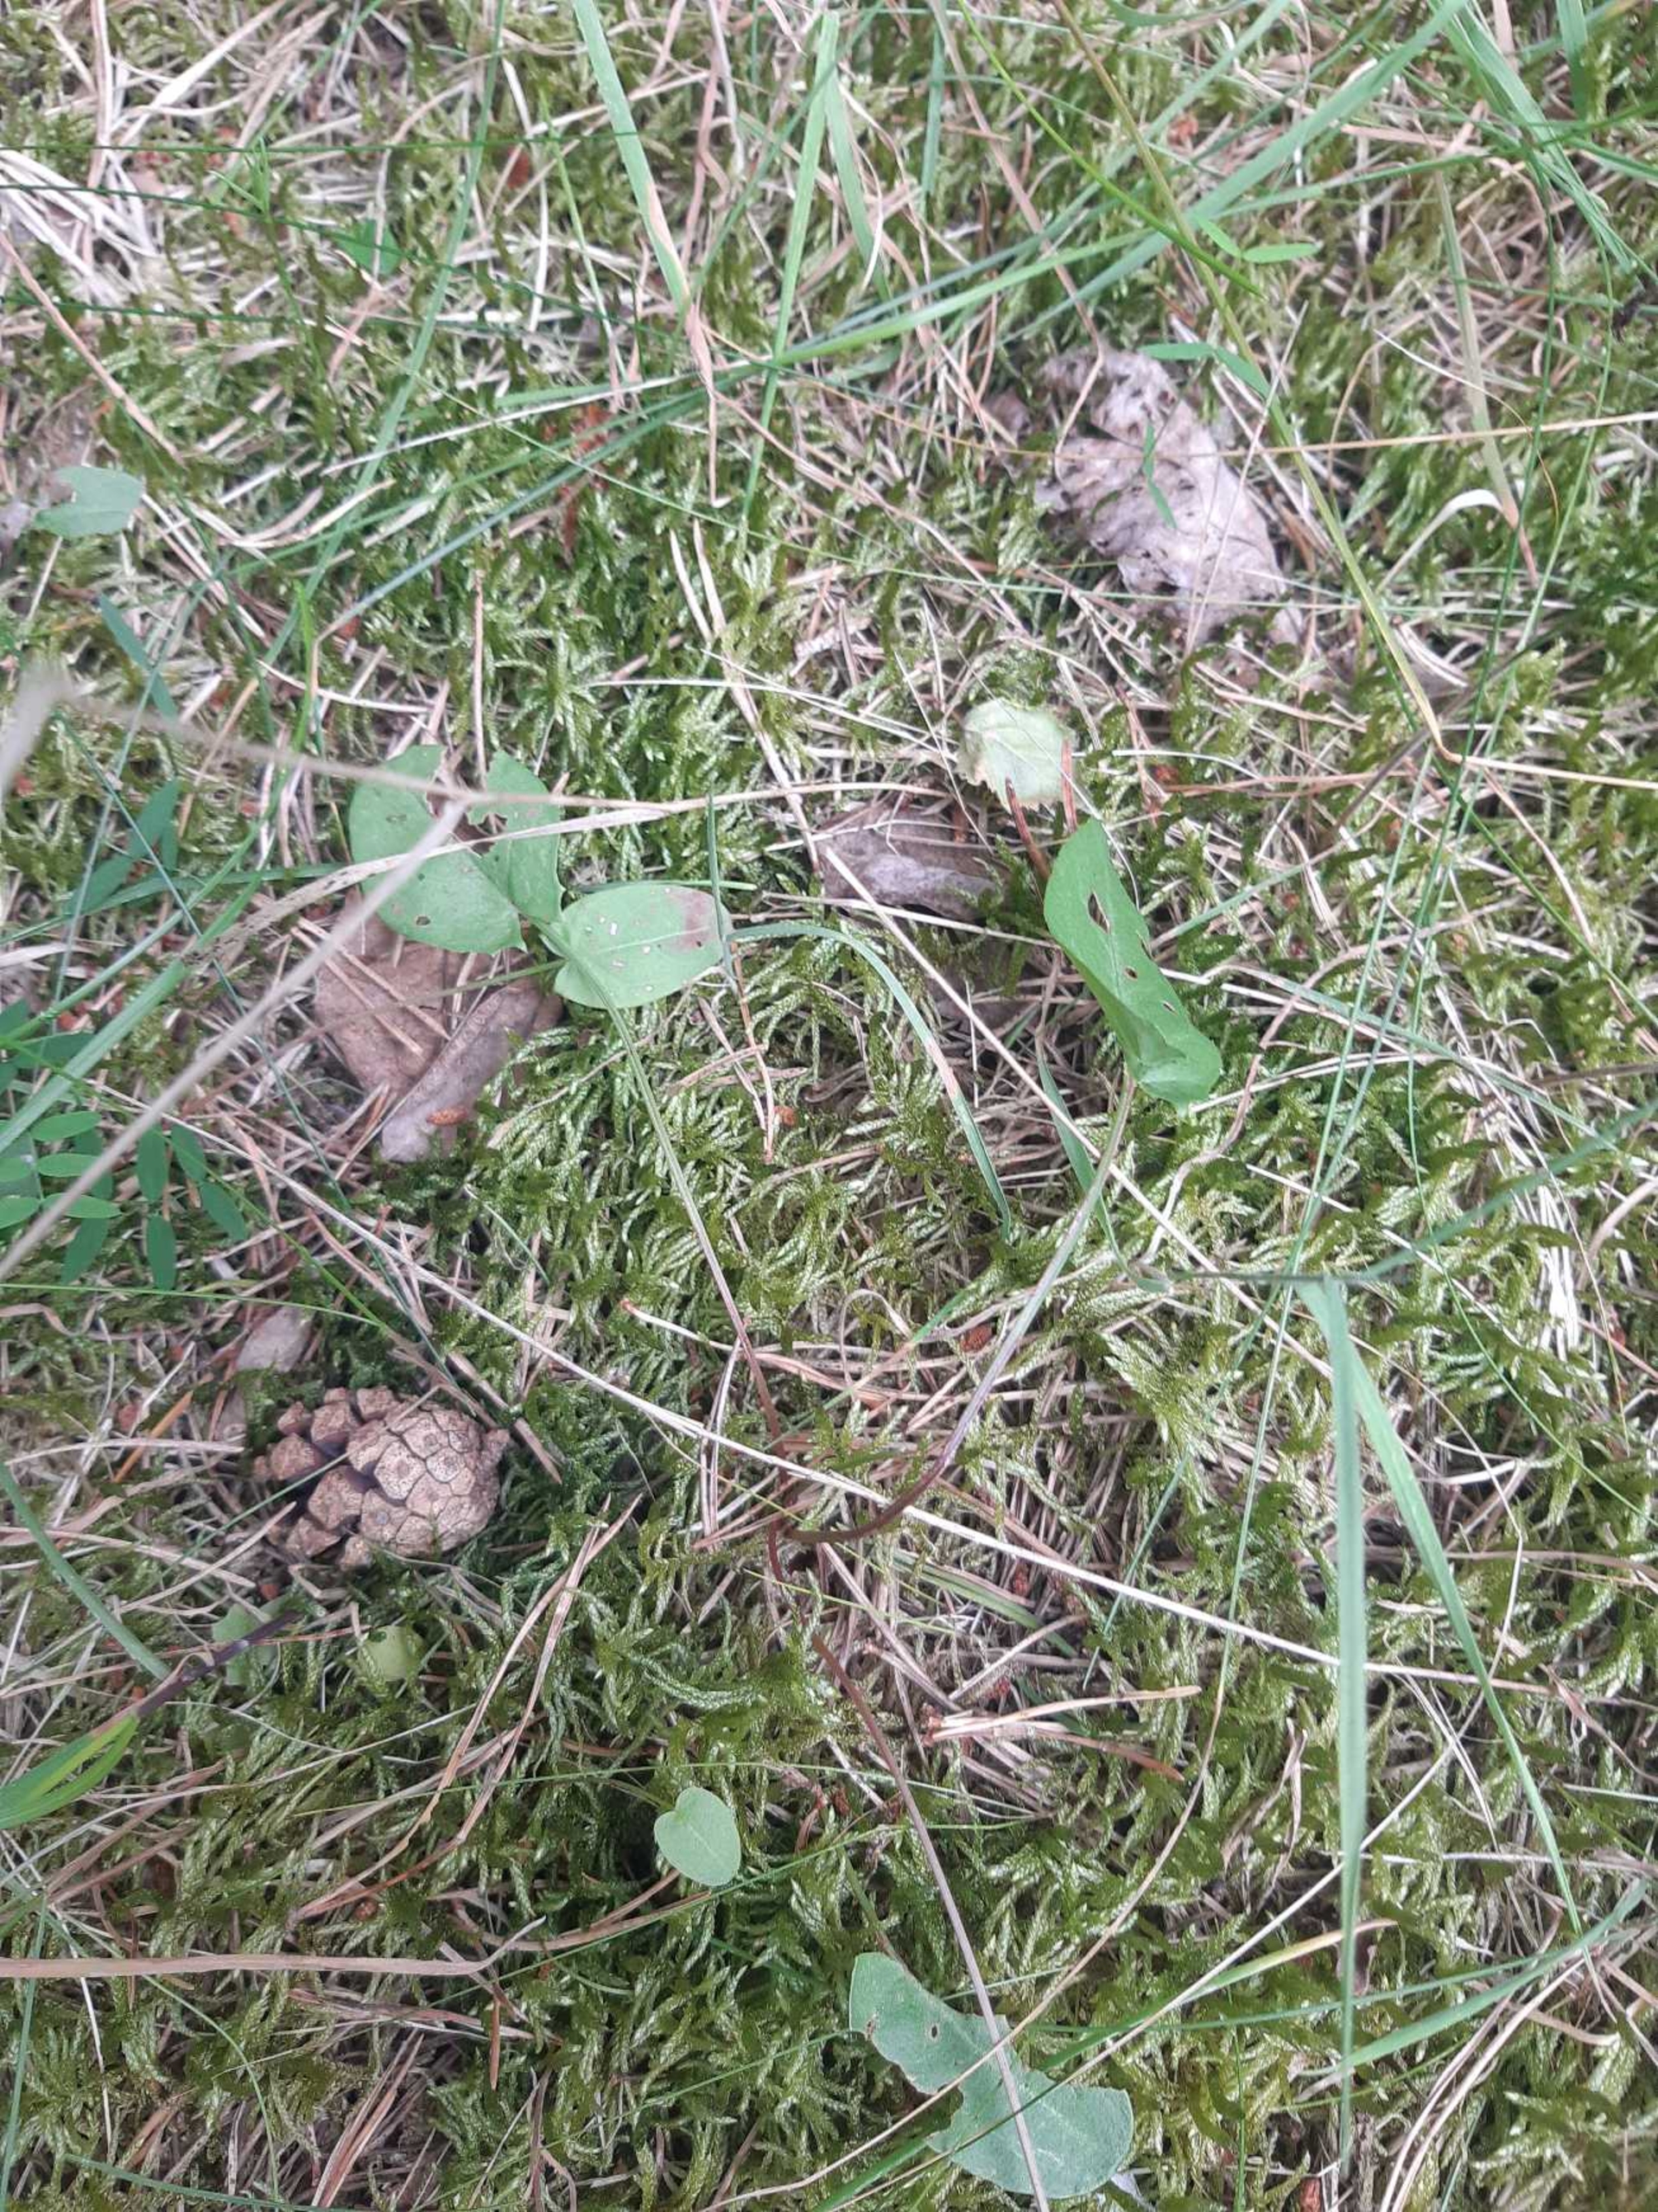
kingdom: Plantae
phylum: Tracheophyta
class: Magnoliopsida
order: Caryophyllales
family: Polygonaceae
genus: Rumex
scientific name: Rumex acetosa
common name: Almindelig syre
